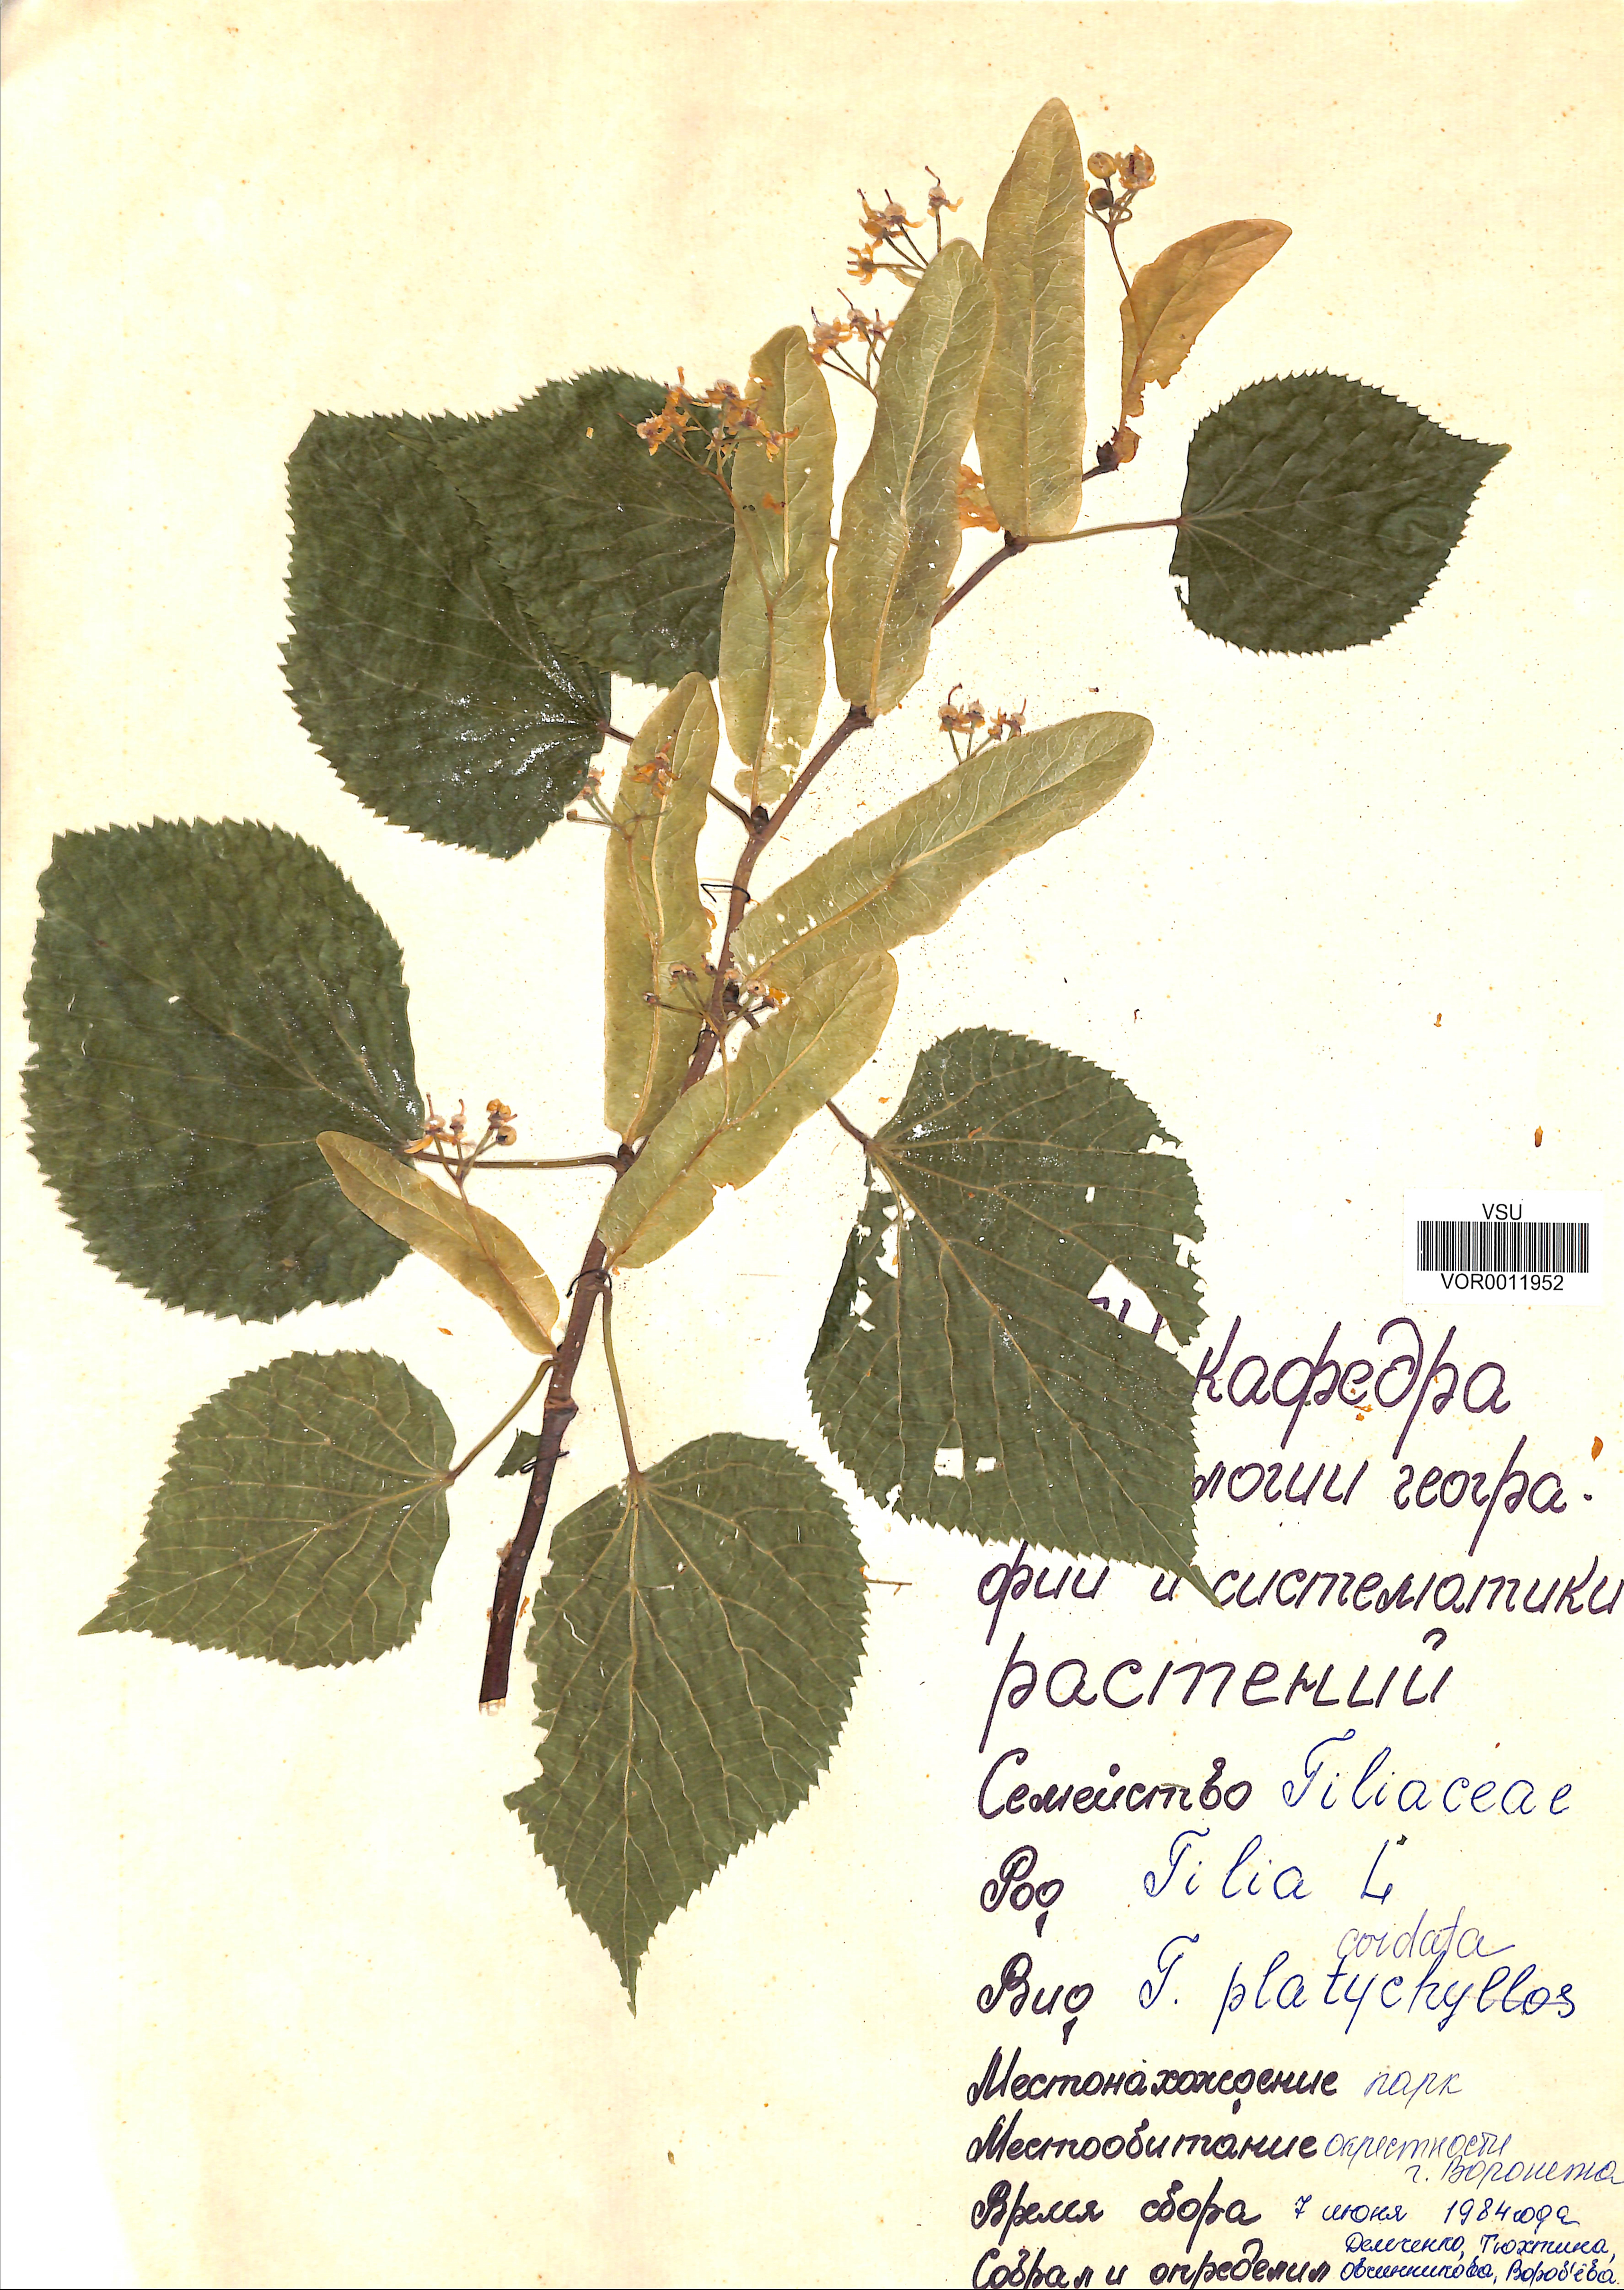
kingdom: Plantae
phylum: Tracheophyta
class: Magnoliopsida
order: Malvales
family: Malvaceae
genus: Tilia
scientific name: Tilia cordata
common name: Small-leaved lime
